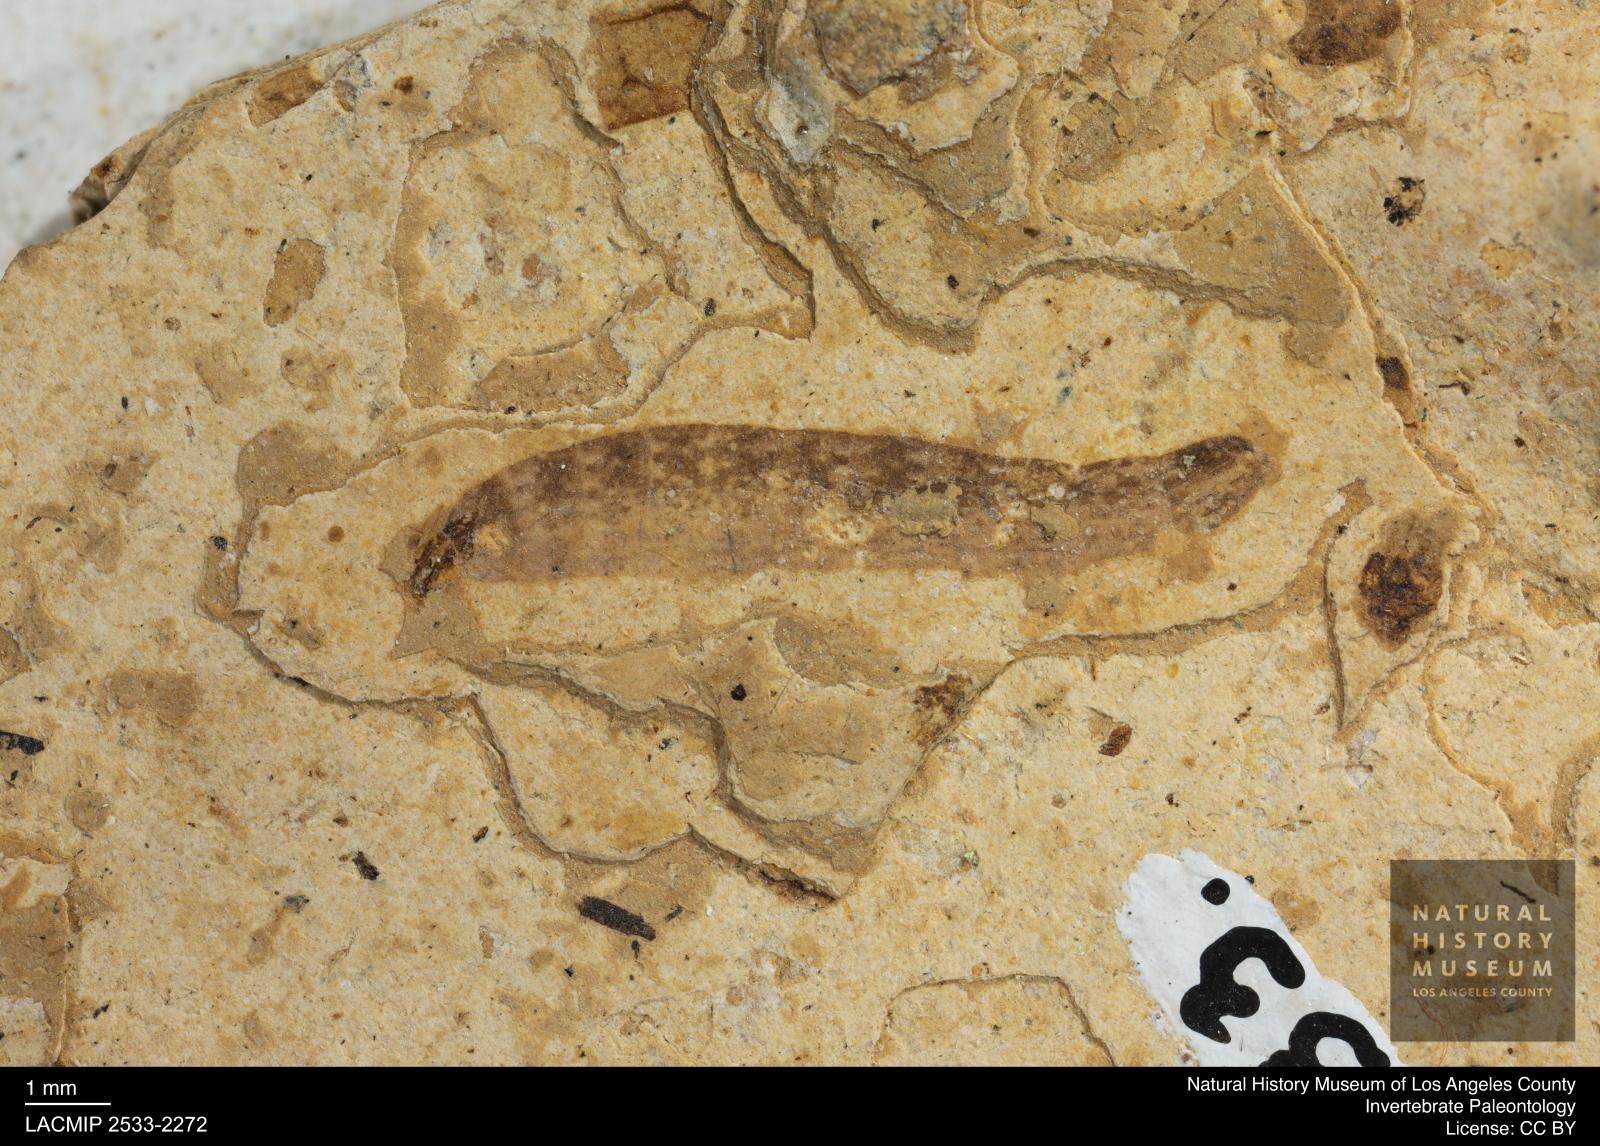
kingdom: Animalia
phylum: Arthropoda
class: Insecta
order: Diptera
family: Stratiomyidae
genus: Odontomyia
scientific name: Odontomyia
